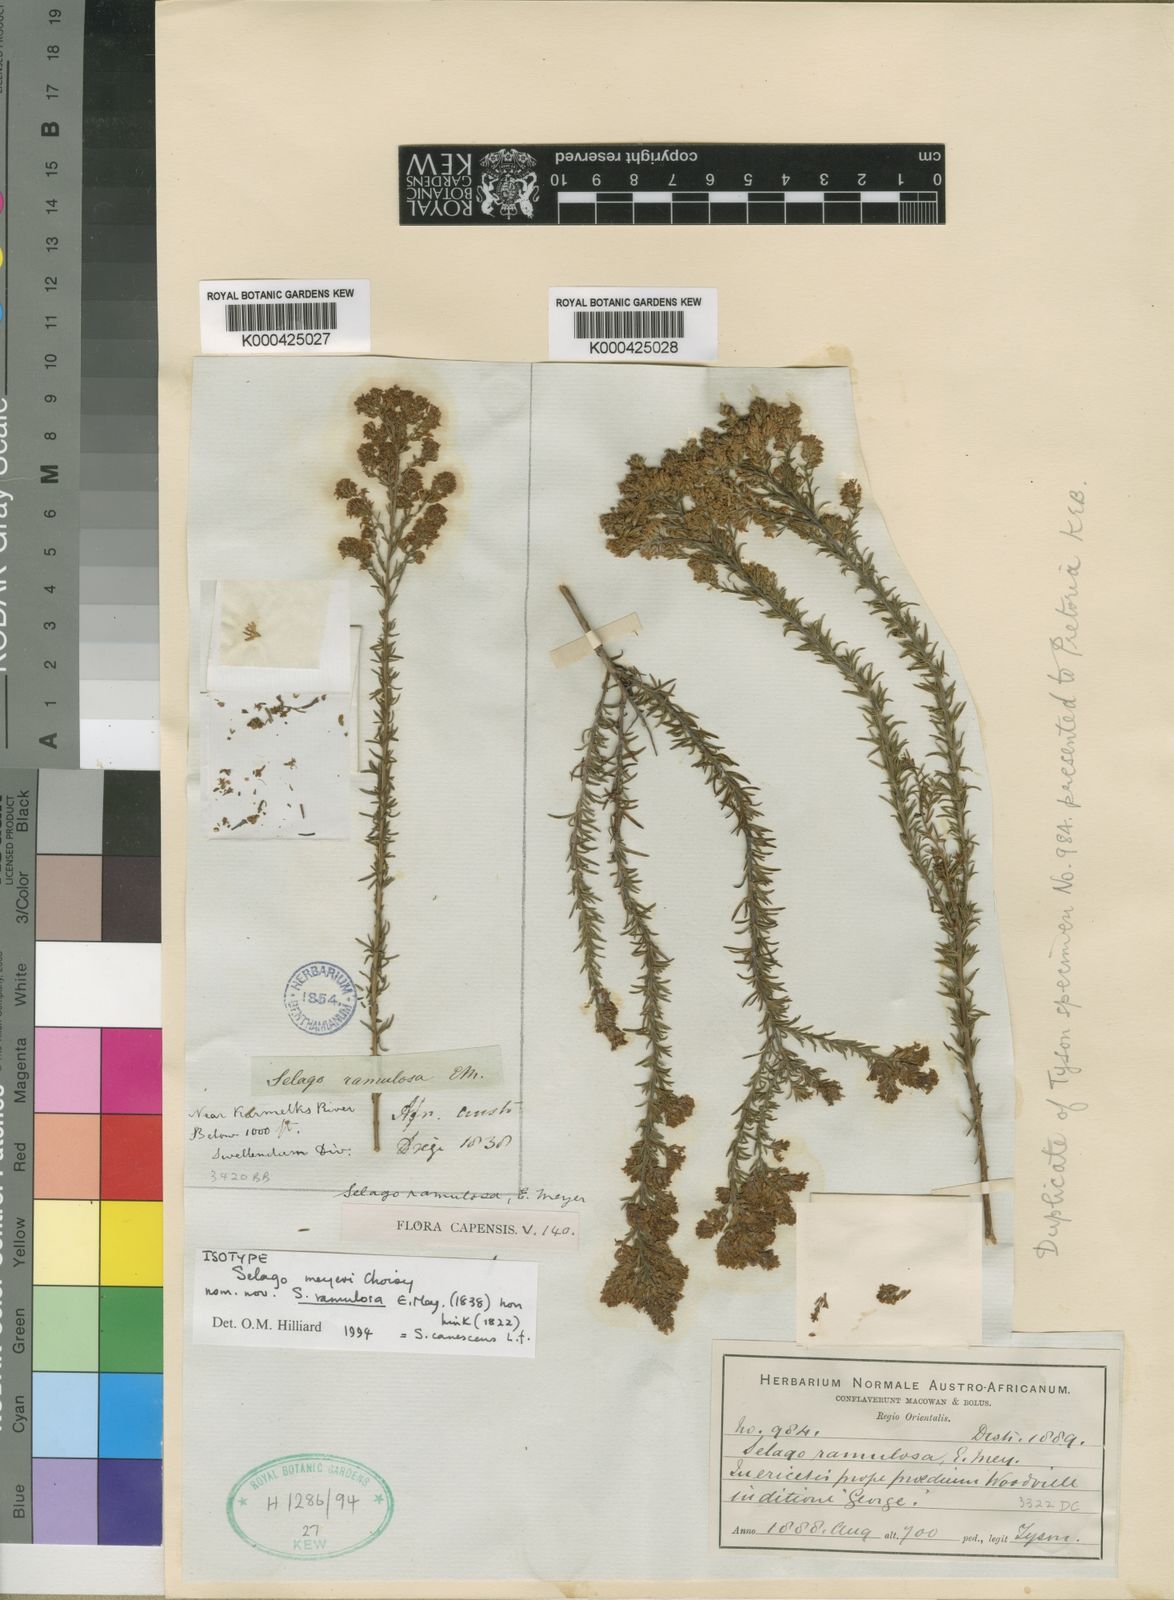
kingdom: Plantae
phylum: Tracheophyta
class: Magnoliopsida
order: Lamiales
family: Scrophulariaceae
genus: Selago
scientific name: Selago canescens
